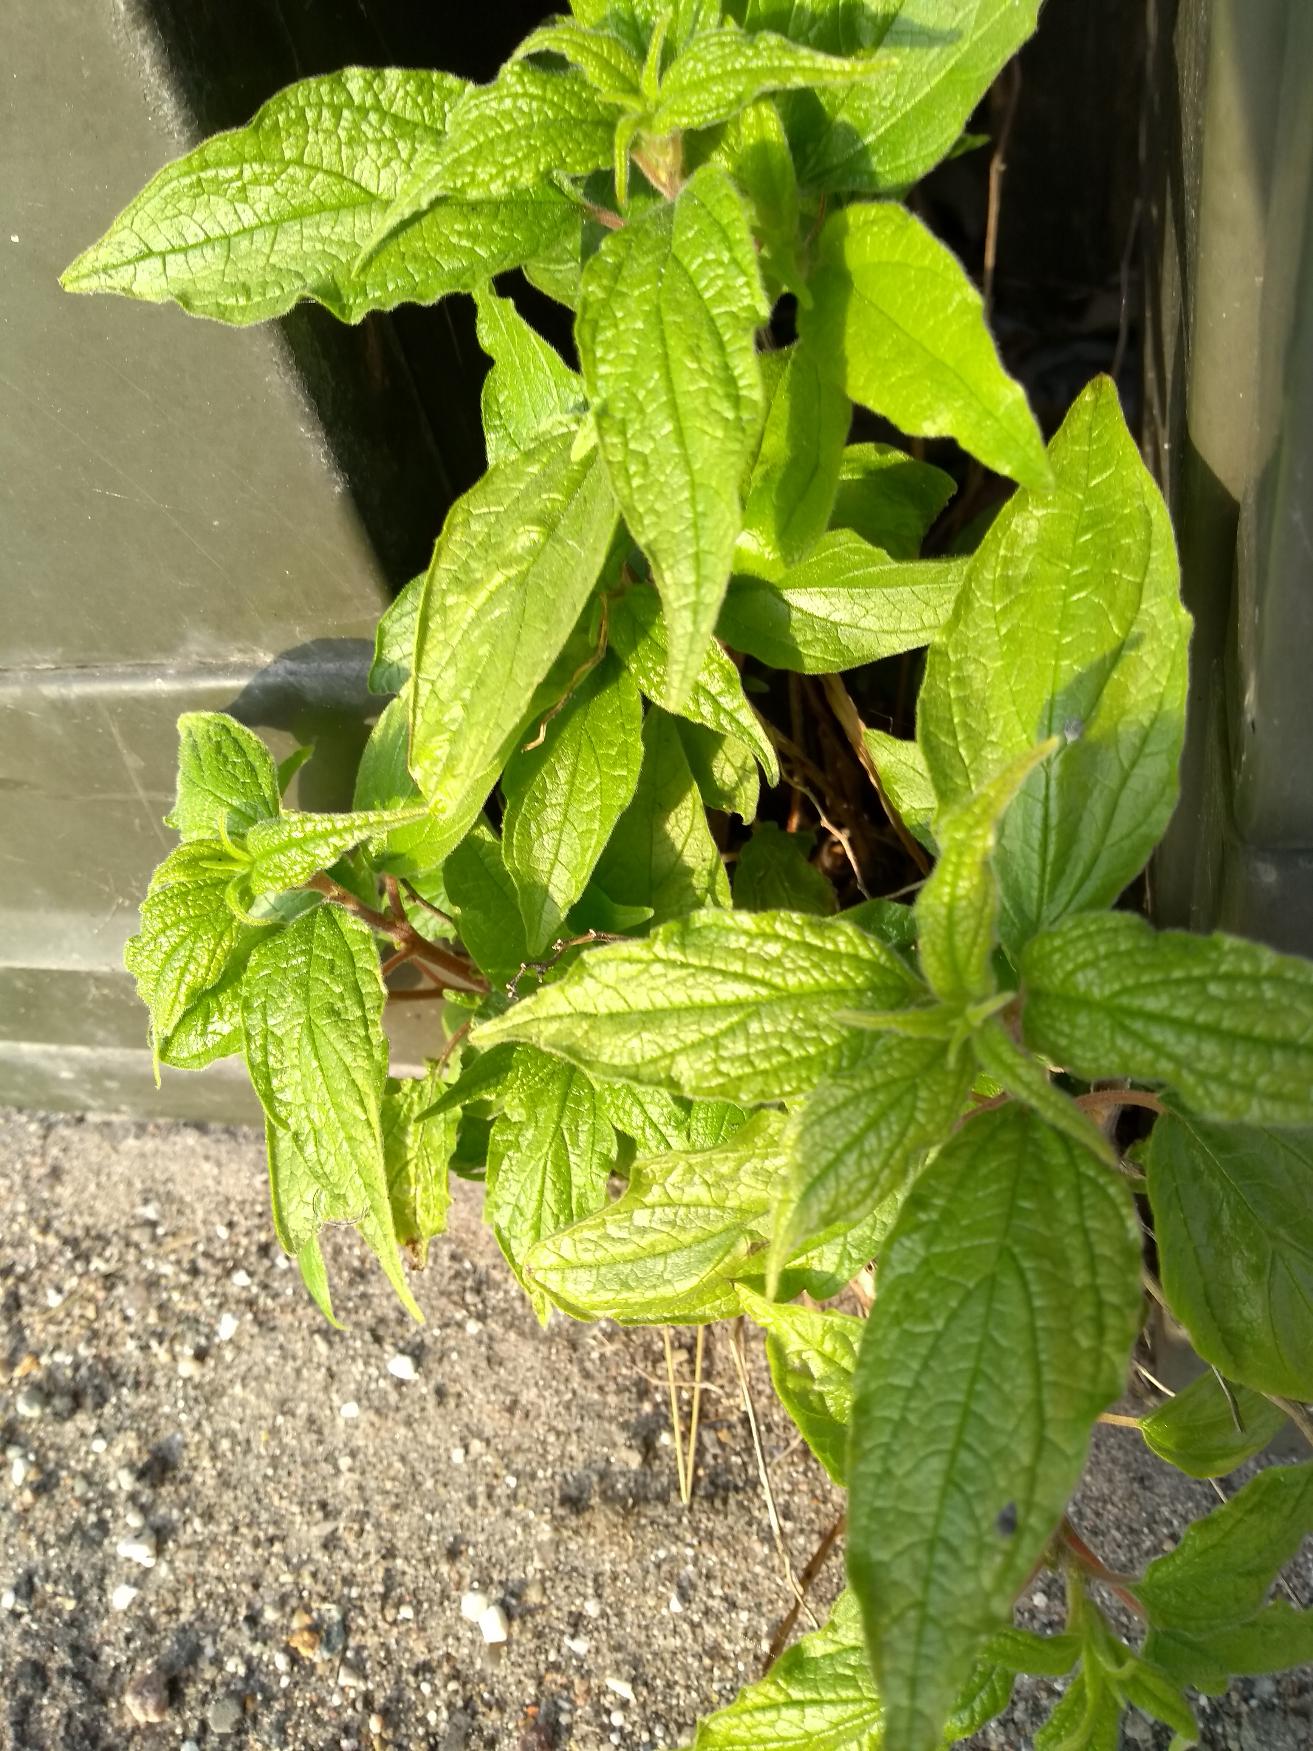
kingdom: Plantae
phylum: Tracheophyta
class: Magnoliopsida
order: Rosales
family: Urticaceae
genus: Parietaria
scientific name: Parietaria officinalis
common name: Almindelig springknap
